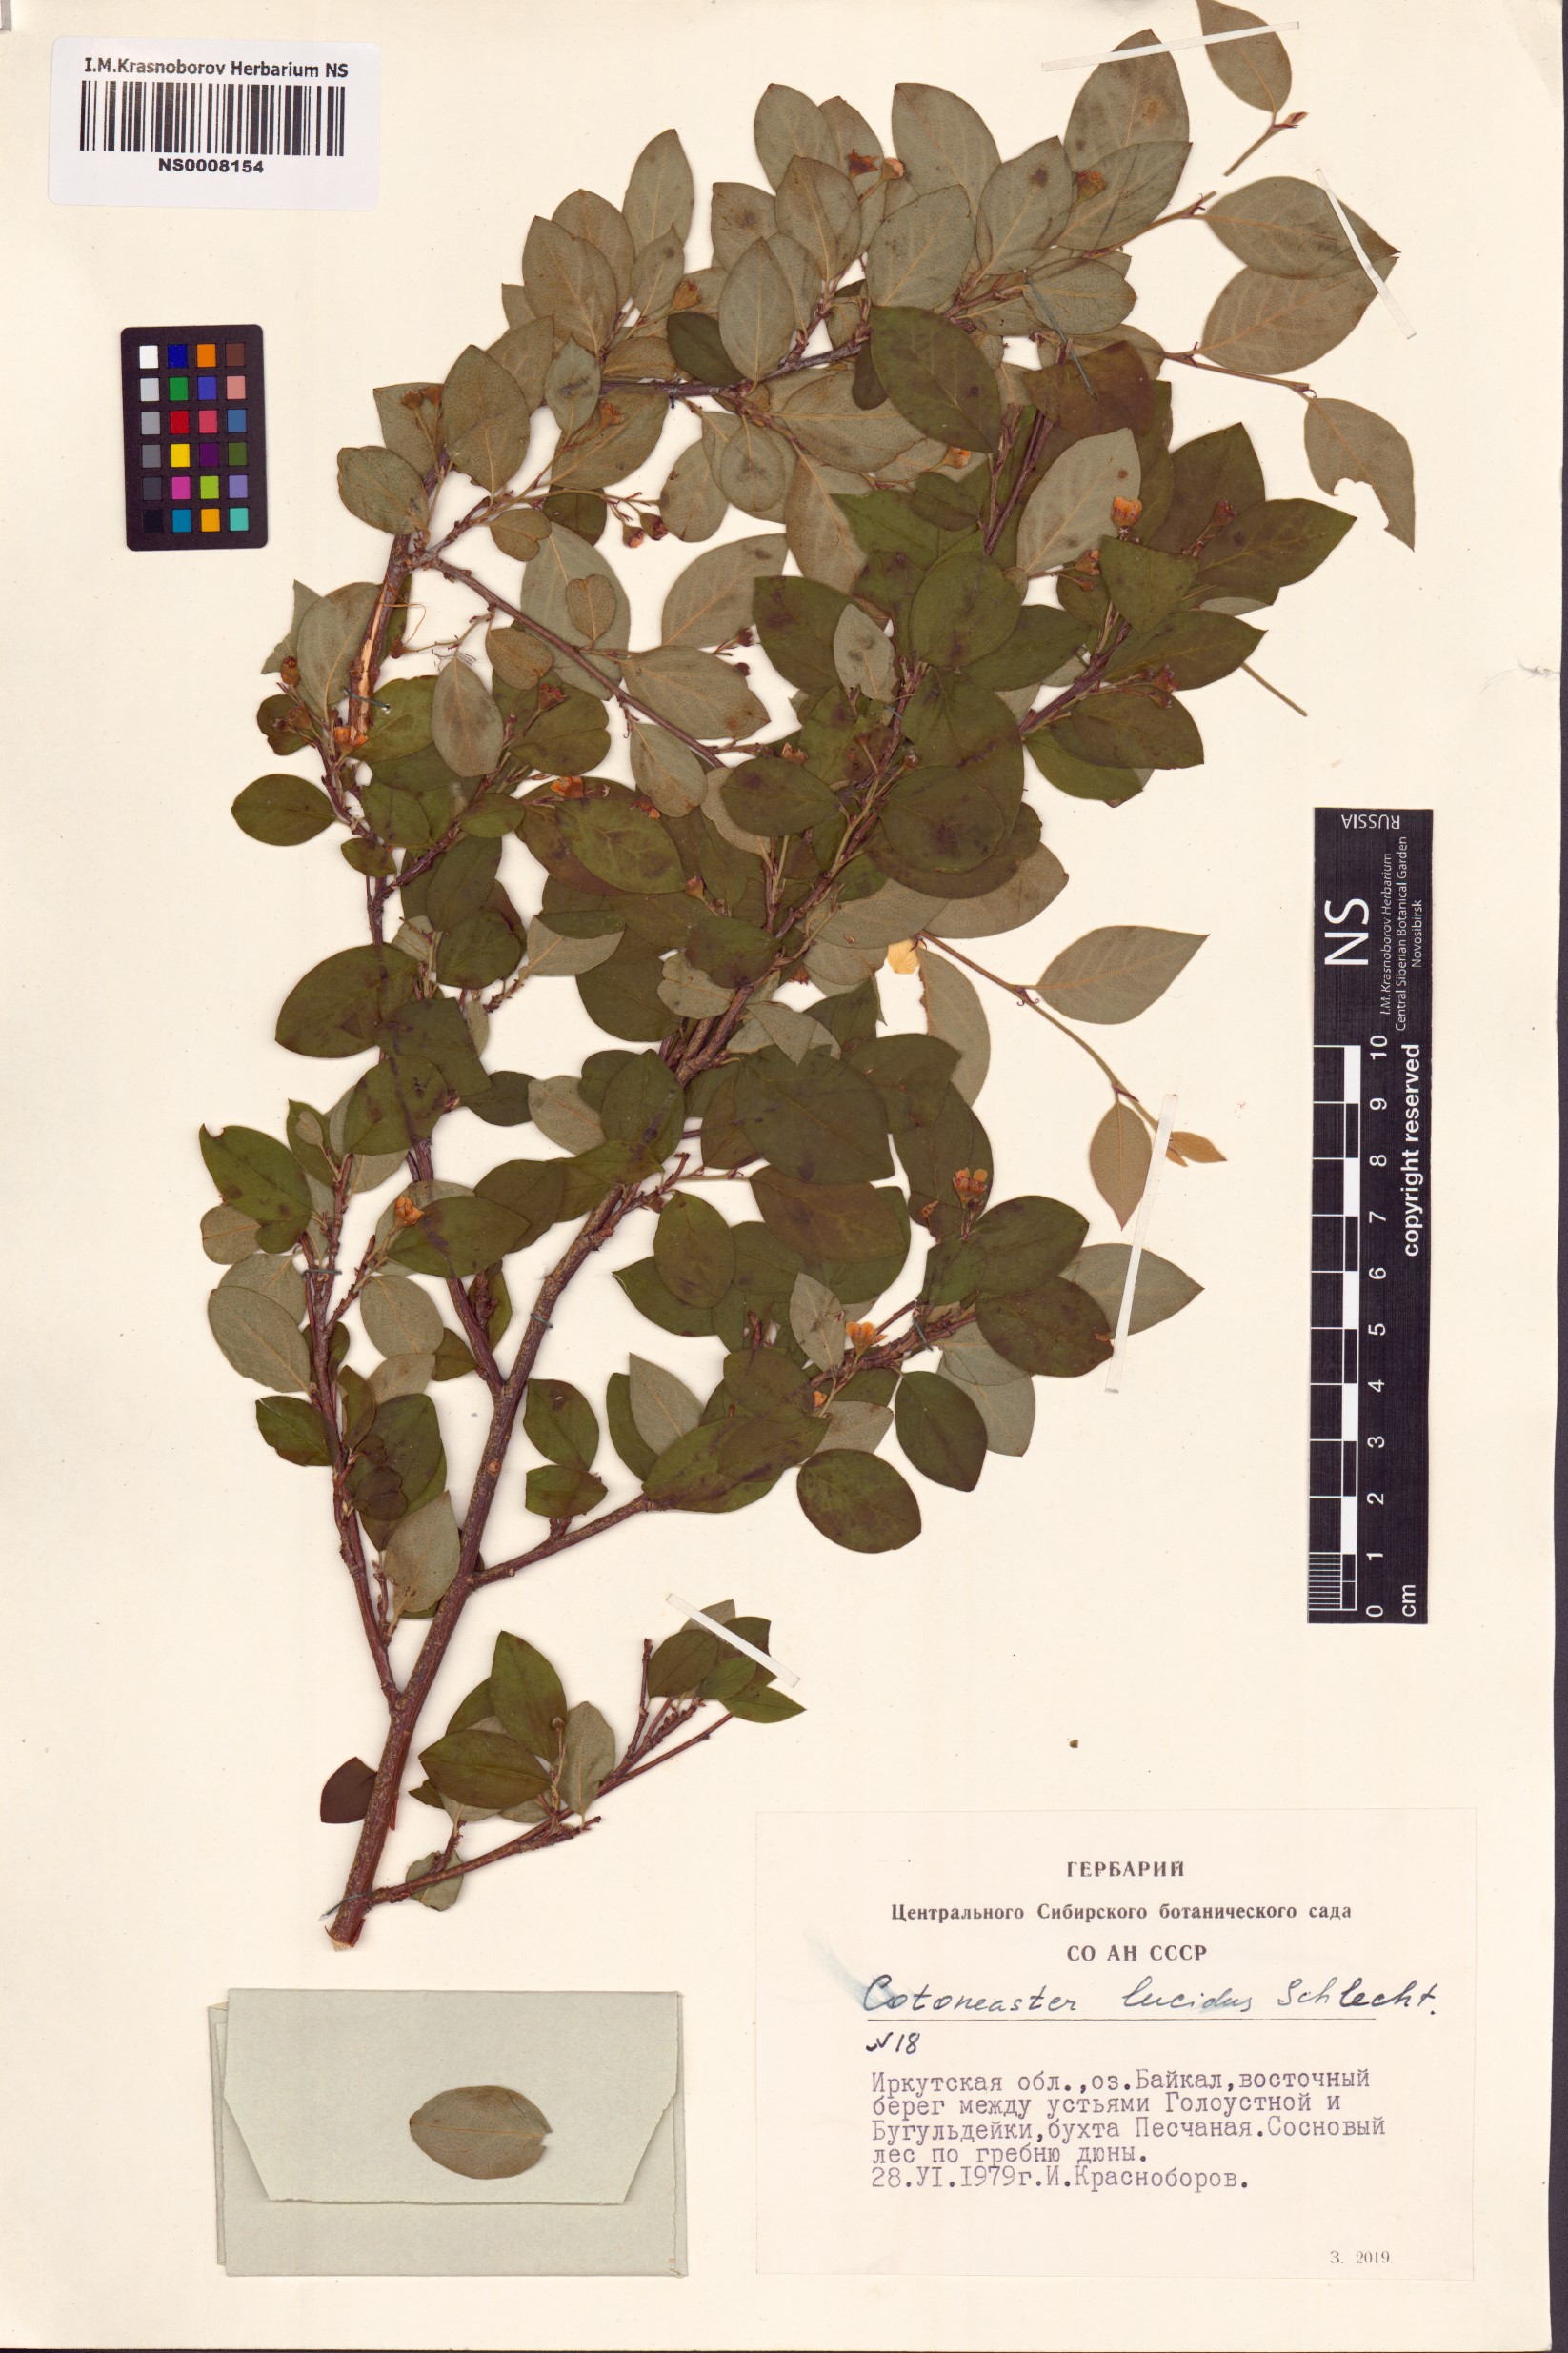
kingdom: Plantae
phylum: Tracheophyta
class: Magnoliopsida
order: Rosales
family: Rosaceae
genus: Cotoneaster
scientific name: Cotoneaster acutifolius
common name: Peking cotoneaster
